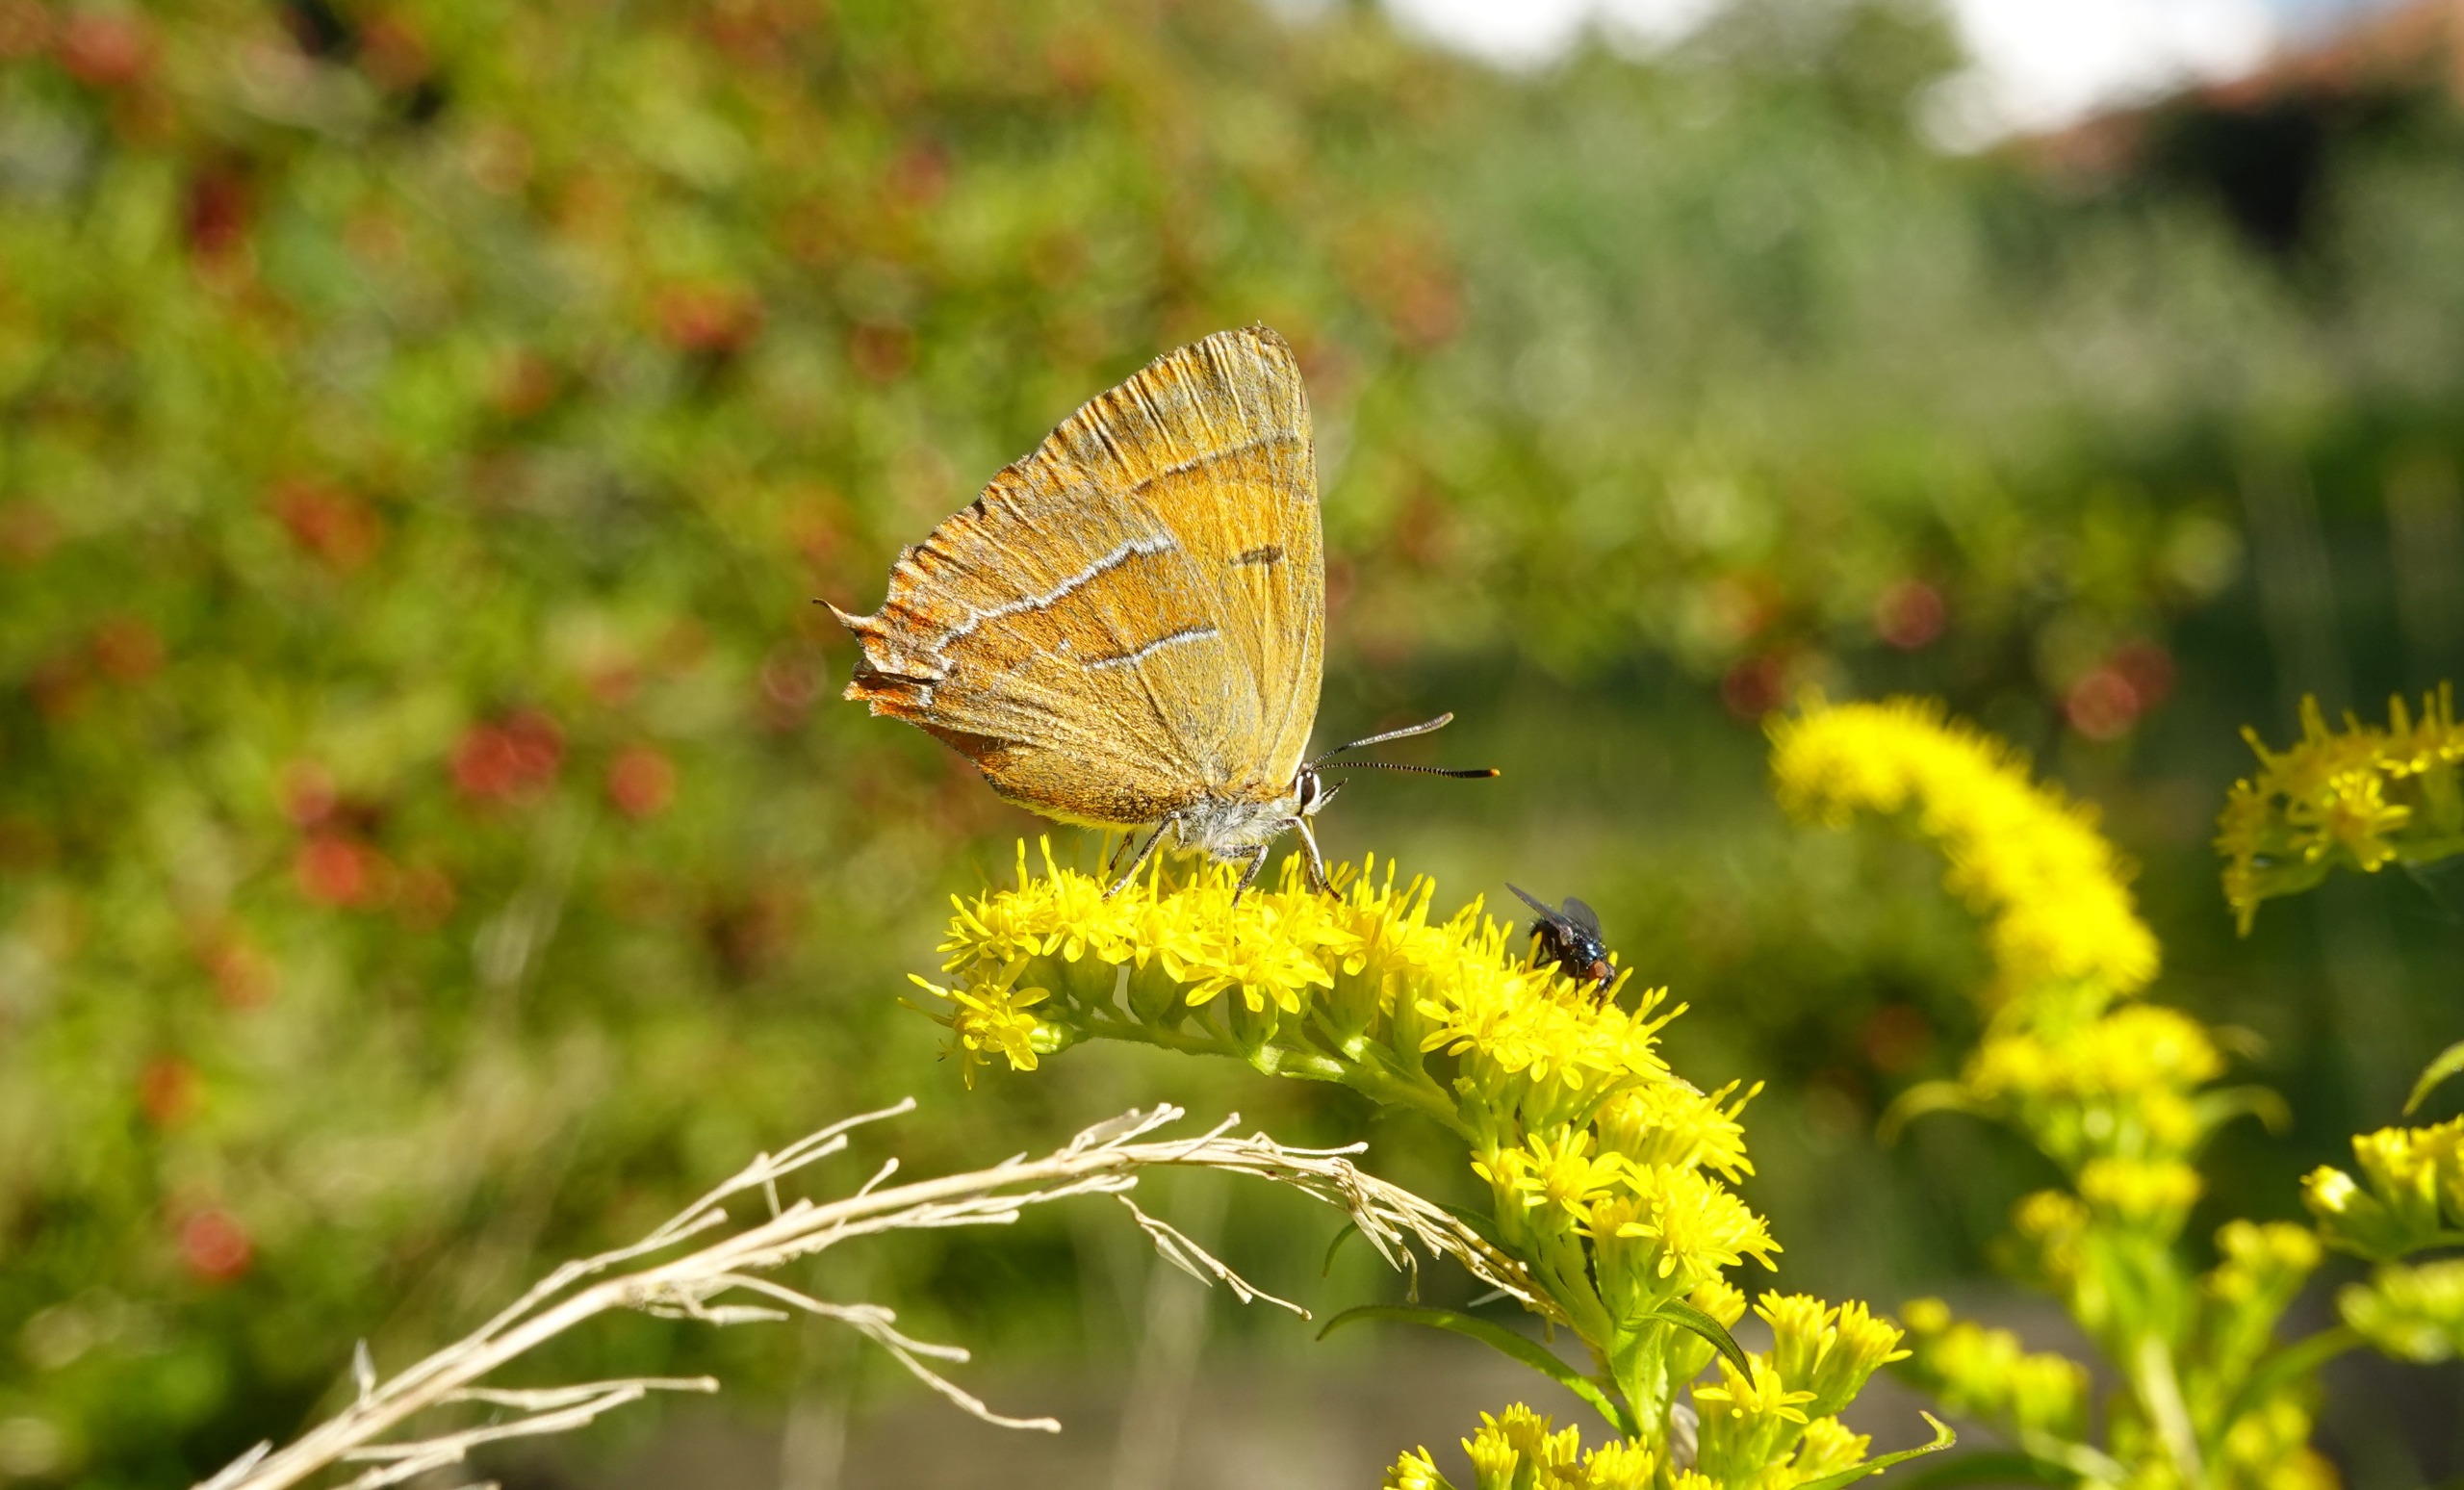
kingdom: Animalia
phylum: Arthropoda
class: Insecta
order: Lepidoptera
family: Lycaenidae
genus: Thecla
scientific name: Thecla betulae
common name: Guldhale
